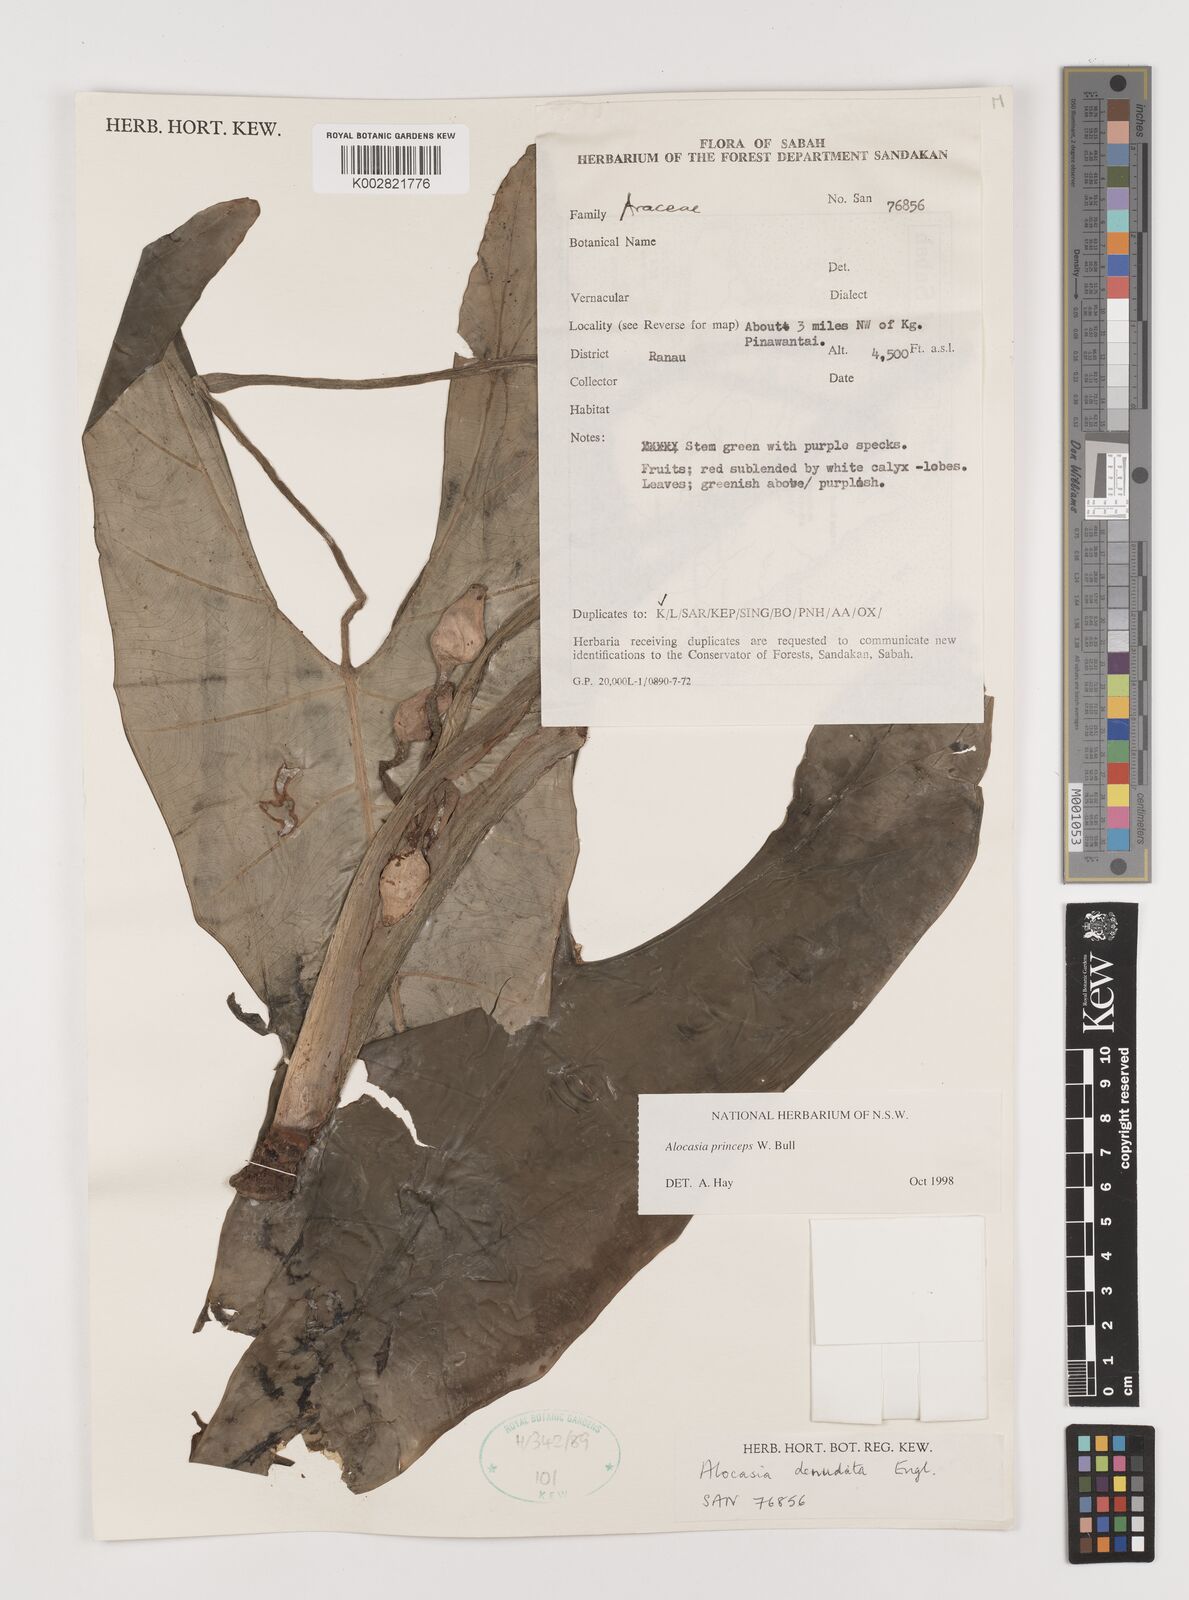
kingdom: Plantae
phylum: Tracheophyta
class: Liliopsida
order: Alismatales
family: Araceae
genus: Alocasia
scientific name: Alocasia princeps
